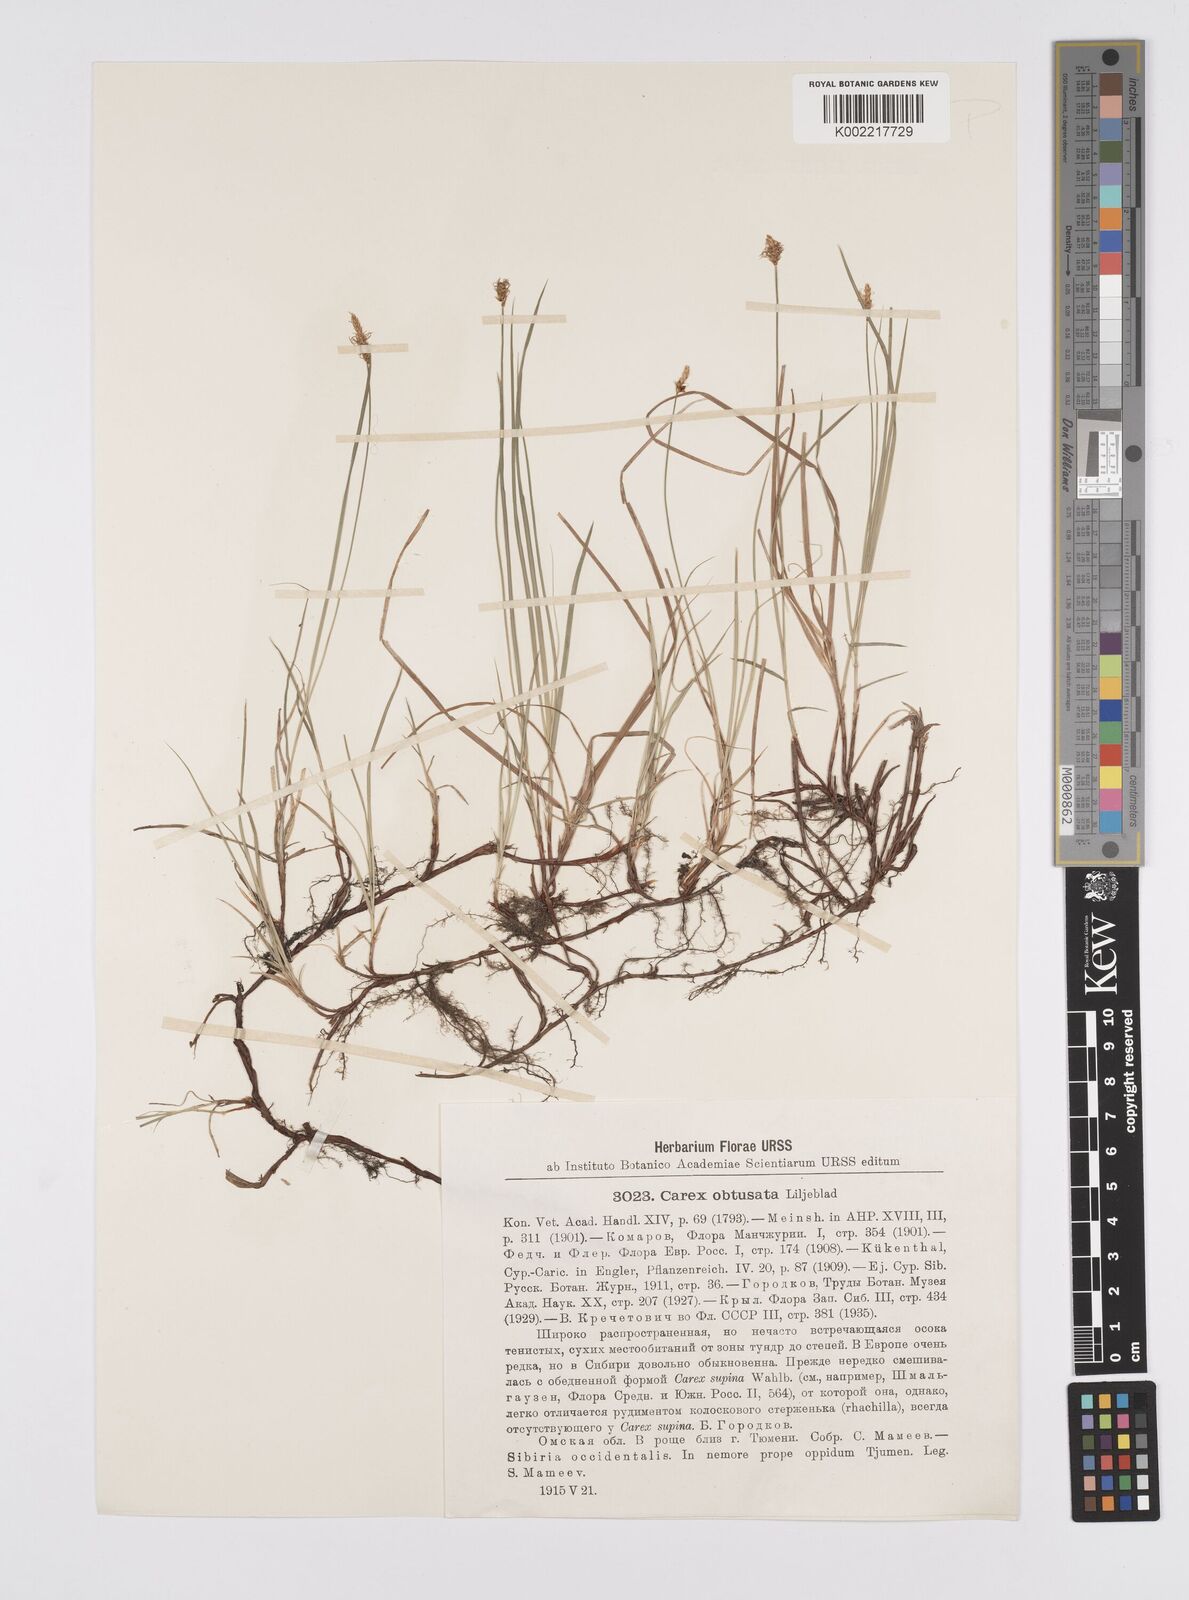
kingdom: Plantae
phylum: Tracheophyta
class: Liliopsida
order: Poales
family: Cyperaceae
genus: Carex
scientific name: Carex obtusata
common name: Blunt sedge
